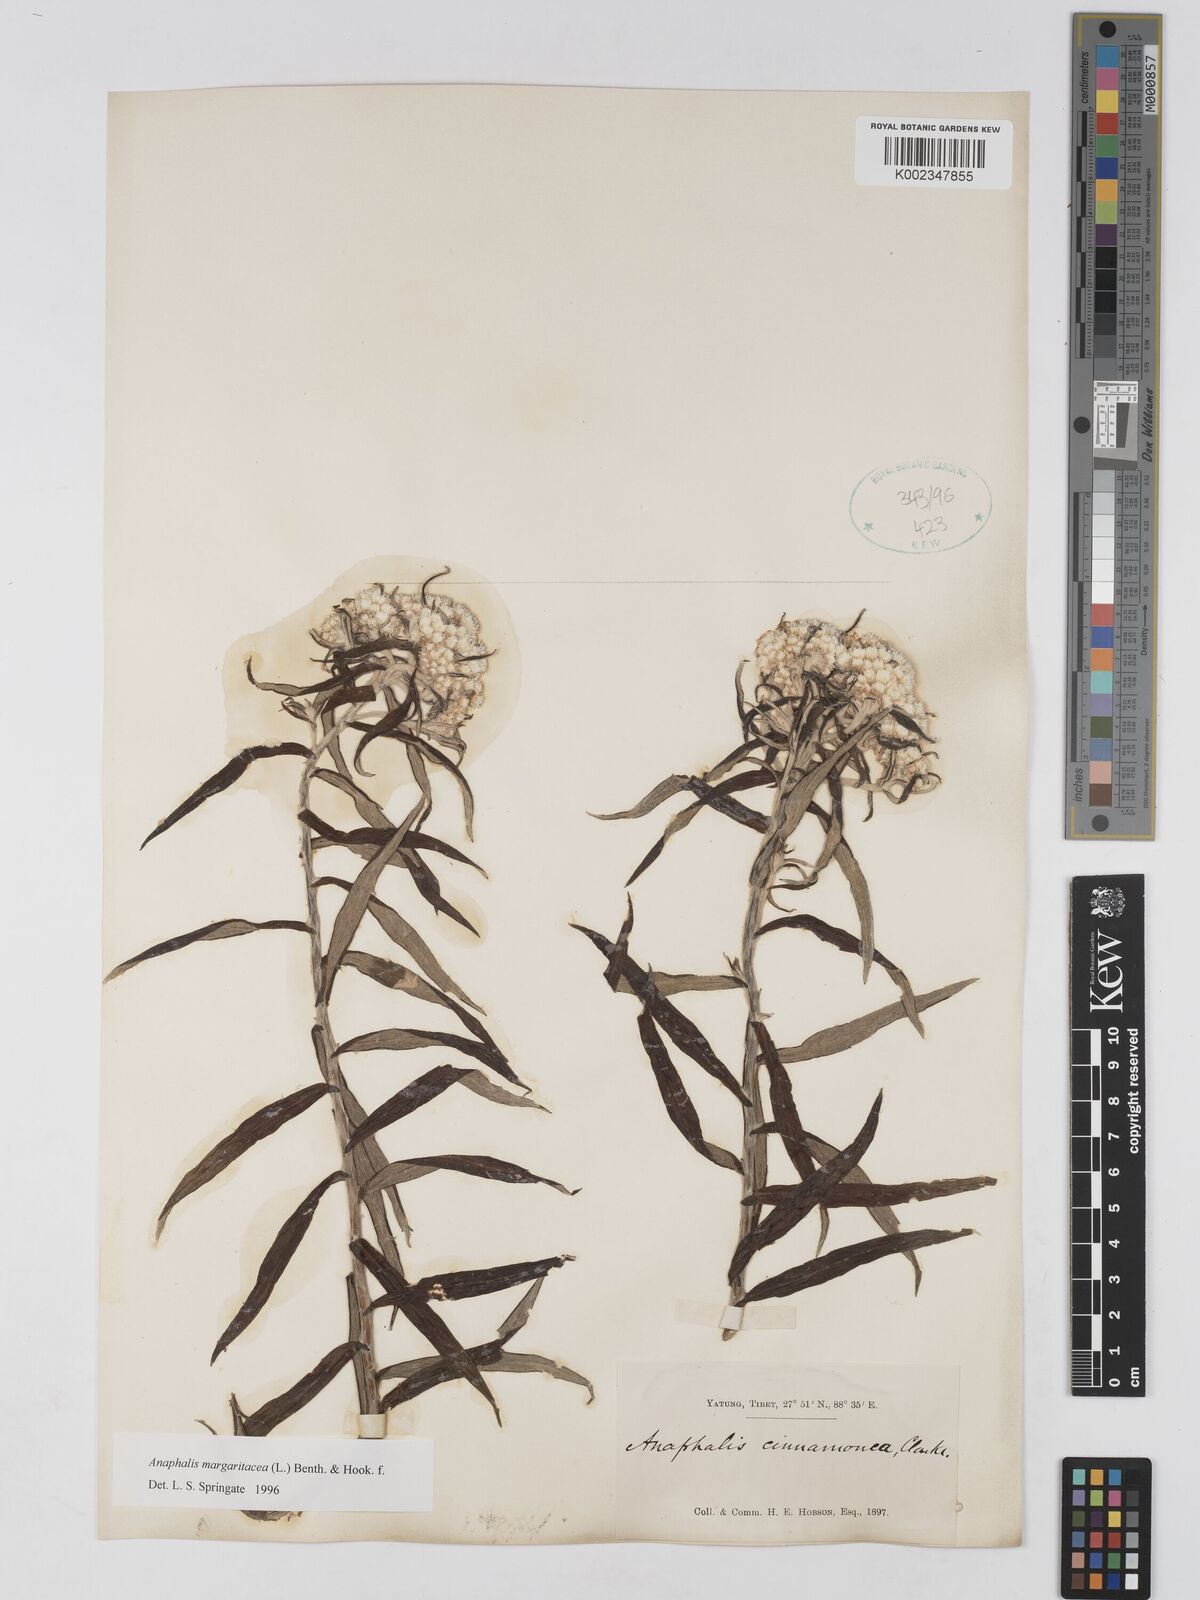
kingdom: Plantae
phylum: Tracheophyta
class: Magnoliopsida
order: Asterales
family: Asteraceae
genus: Anaphalis
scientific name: Anaphalis margaritacea
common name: Pearly everlasting
